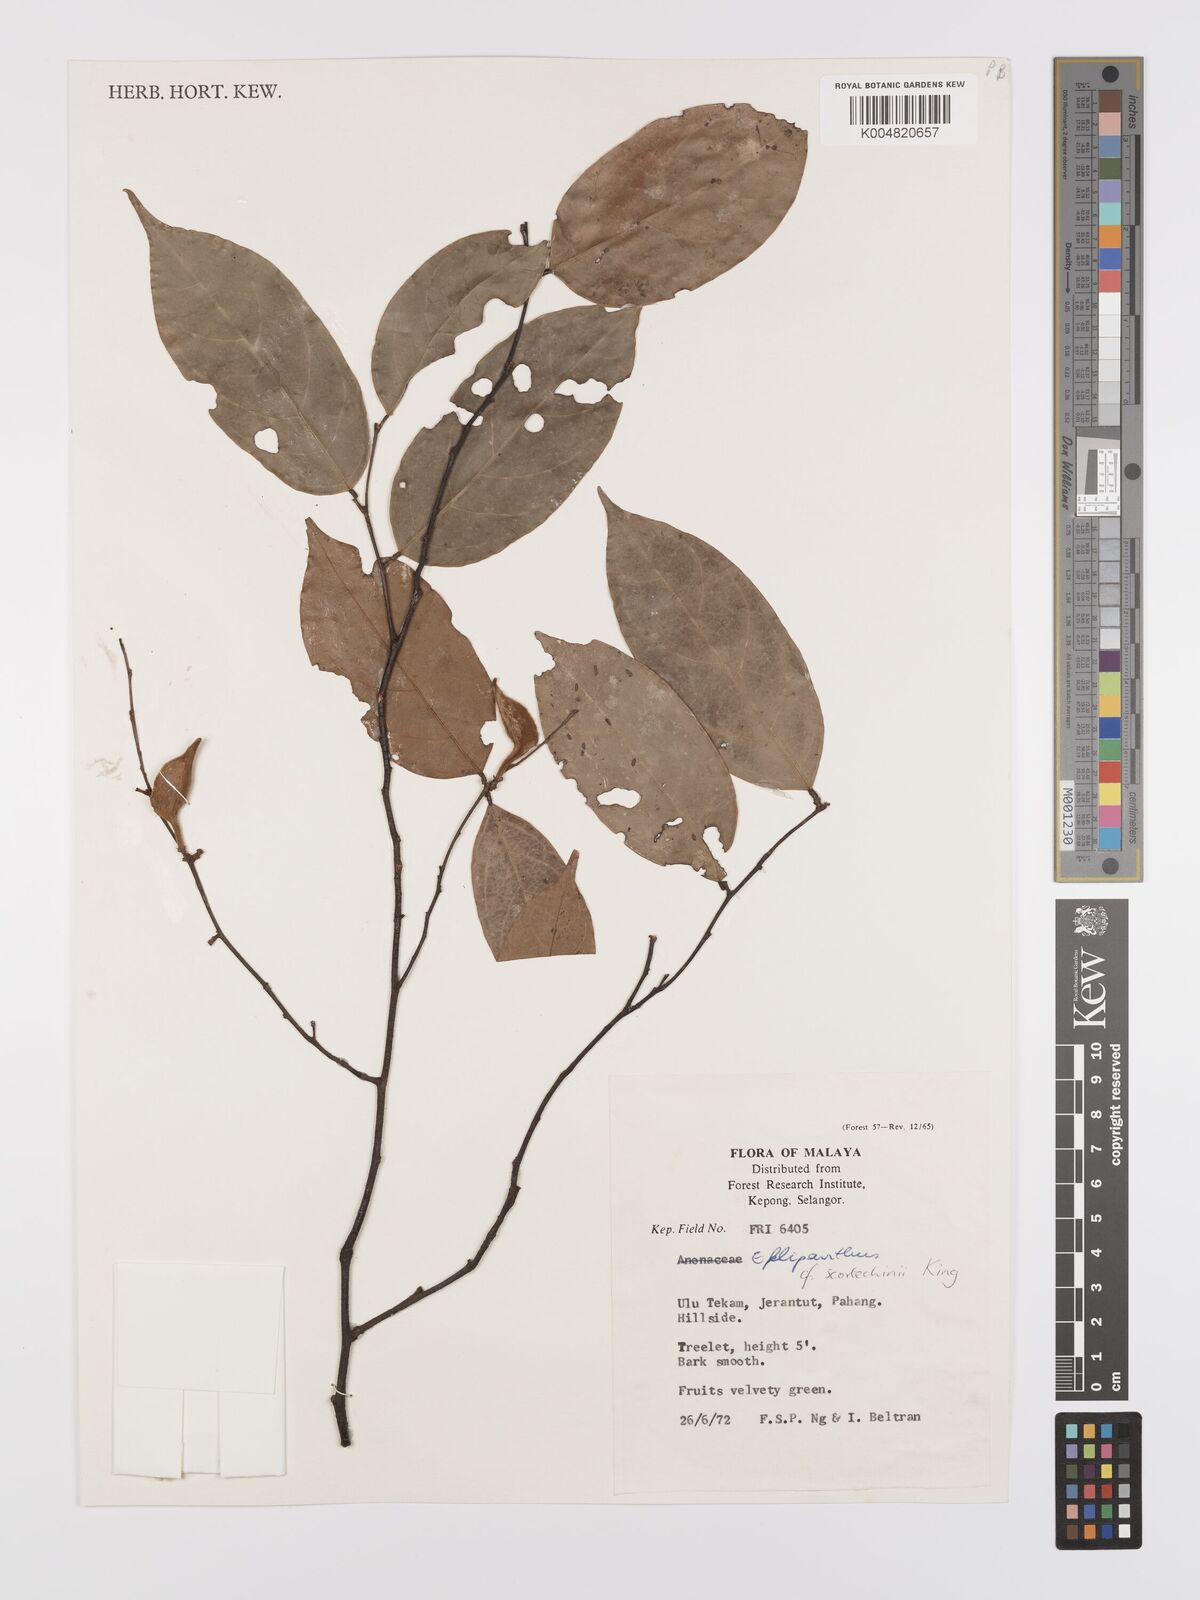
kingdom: Plantae
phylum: Tracheophyta
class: Magnoliopsida
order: Malpighiales
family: Dichapetalaceae
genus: Dichapetalum
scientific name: Dichapetalum gelonioides
